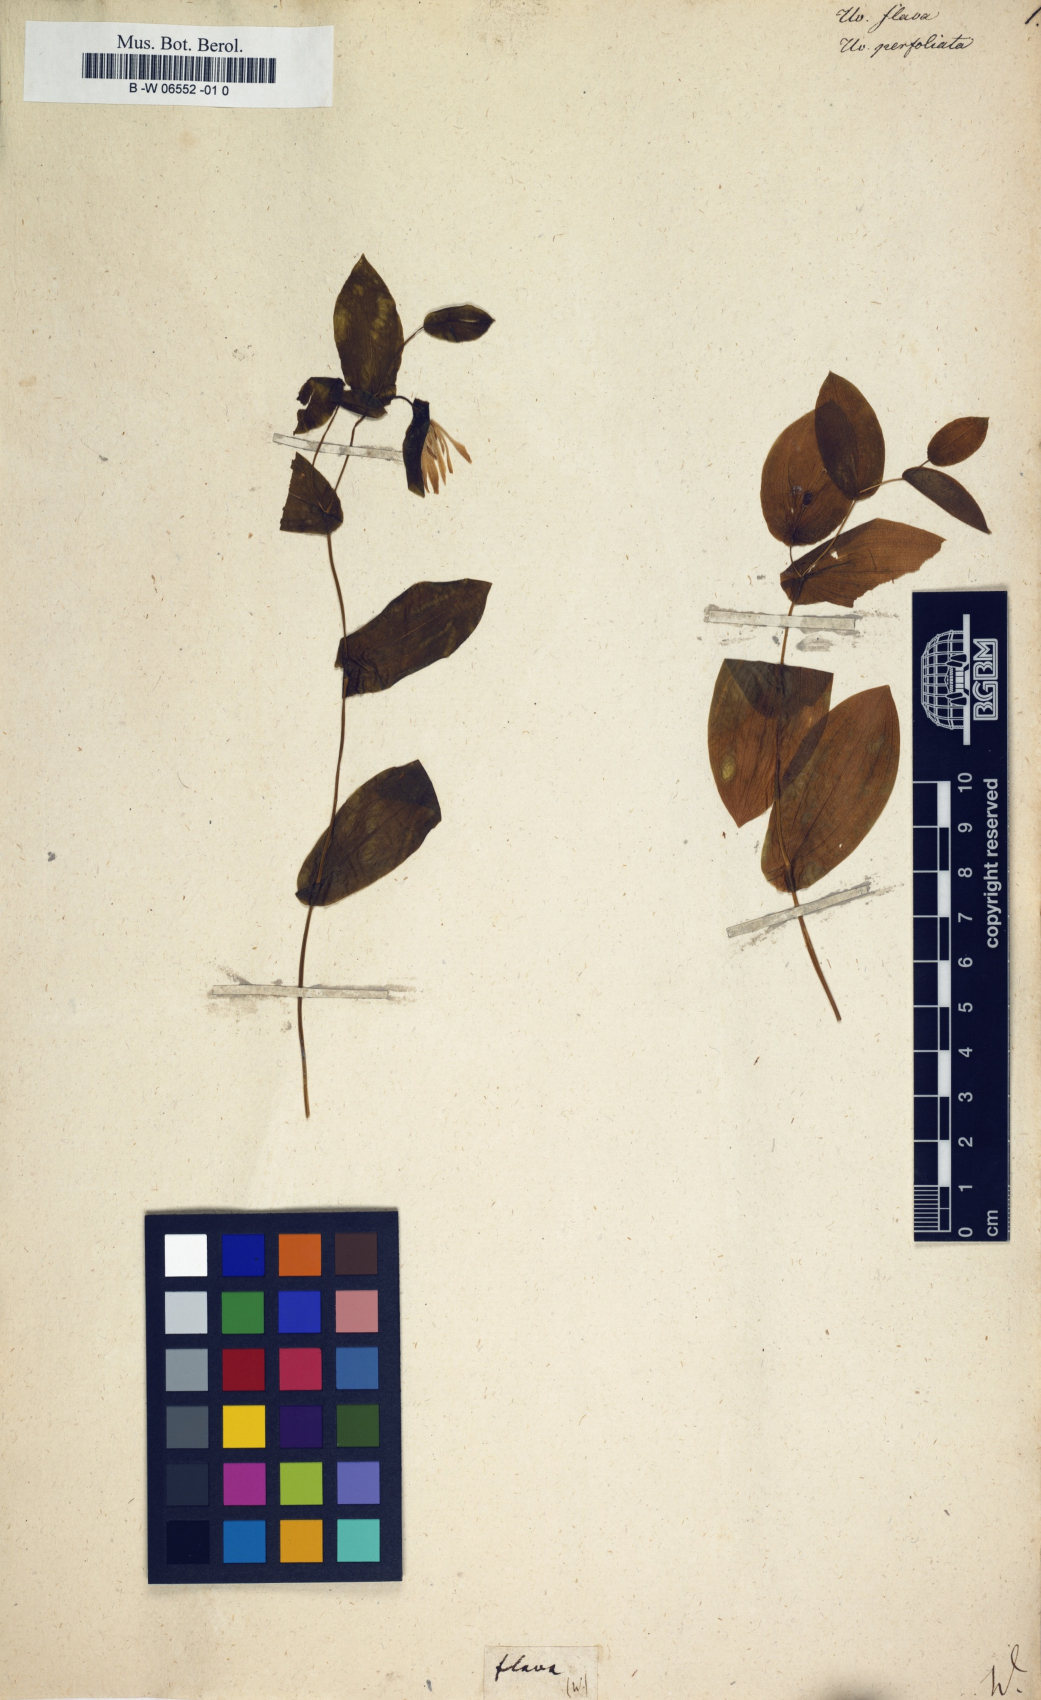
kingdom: Plantae
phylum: Tracheophyta
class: Liliopsida
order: Liliales
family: Colchicaceae
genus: Uvularia
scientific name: Uvularia perfoliata
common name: Perfoliate bellwort
